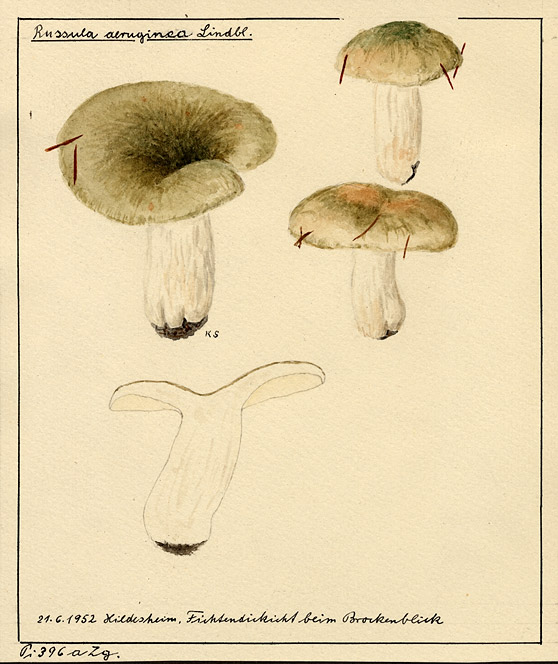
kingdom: Fungi
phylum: Basidiomycota
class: Agaricomycetes
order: Russulales
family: Russulaceae
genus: Russula
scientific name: Russula aeruginea
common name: Green brittlegill
